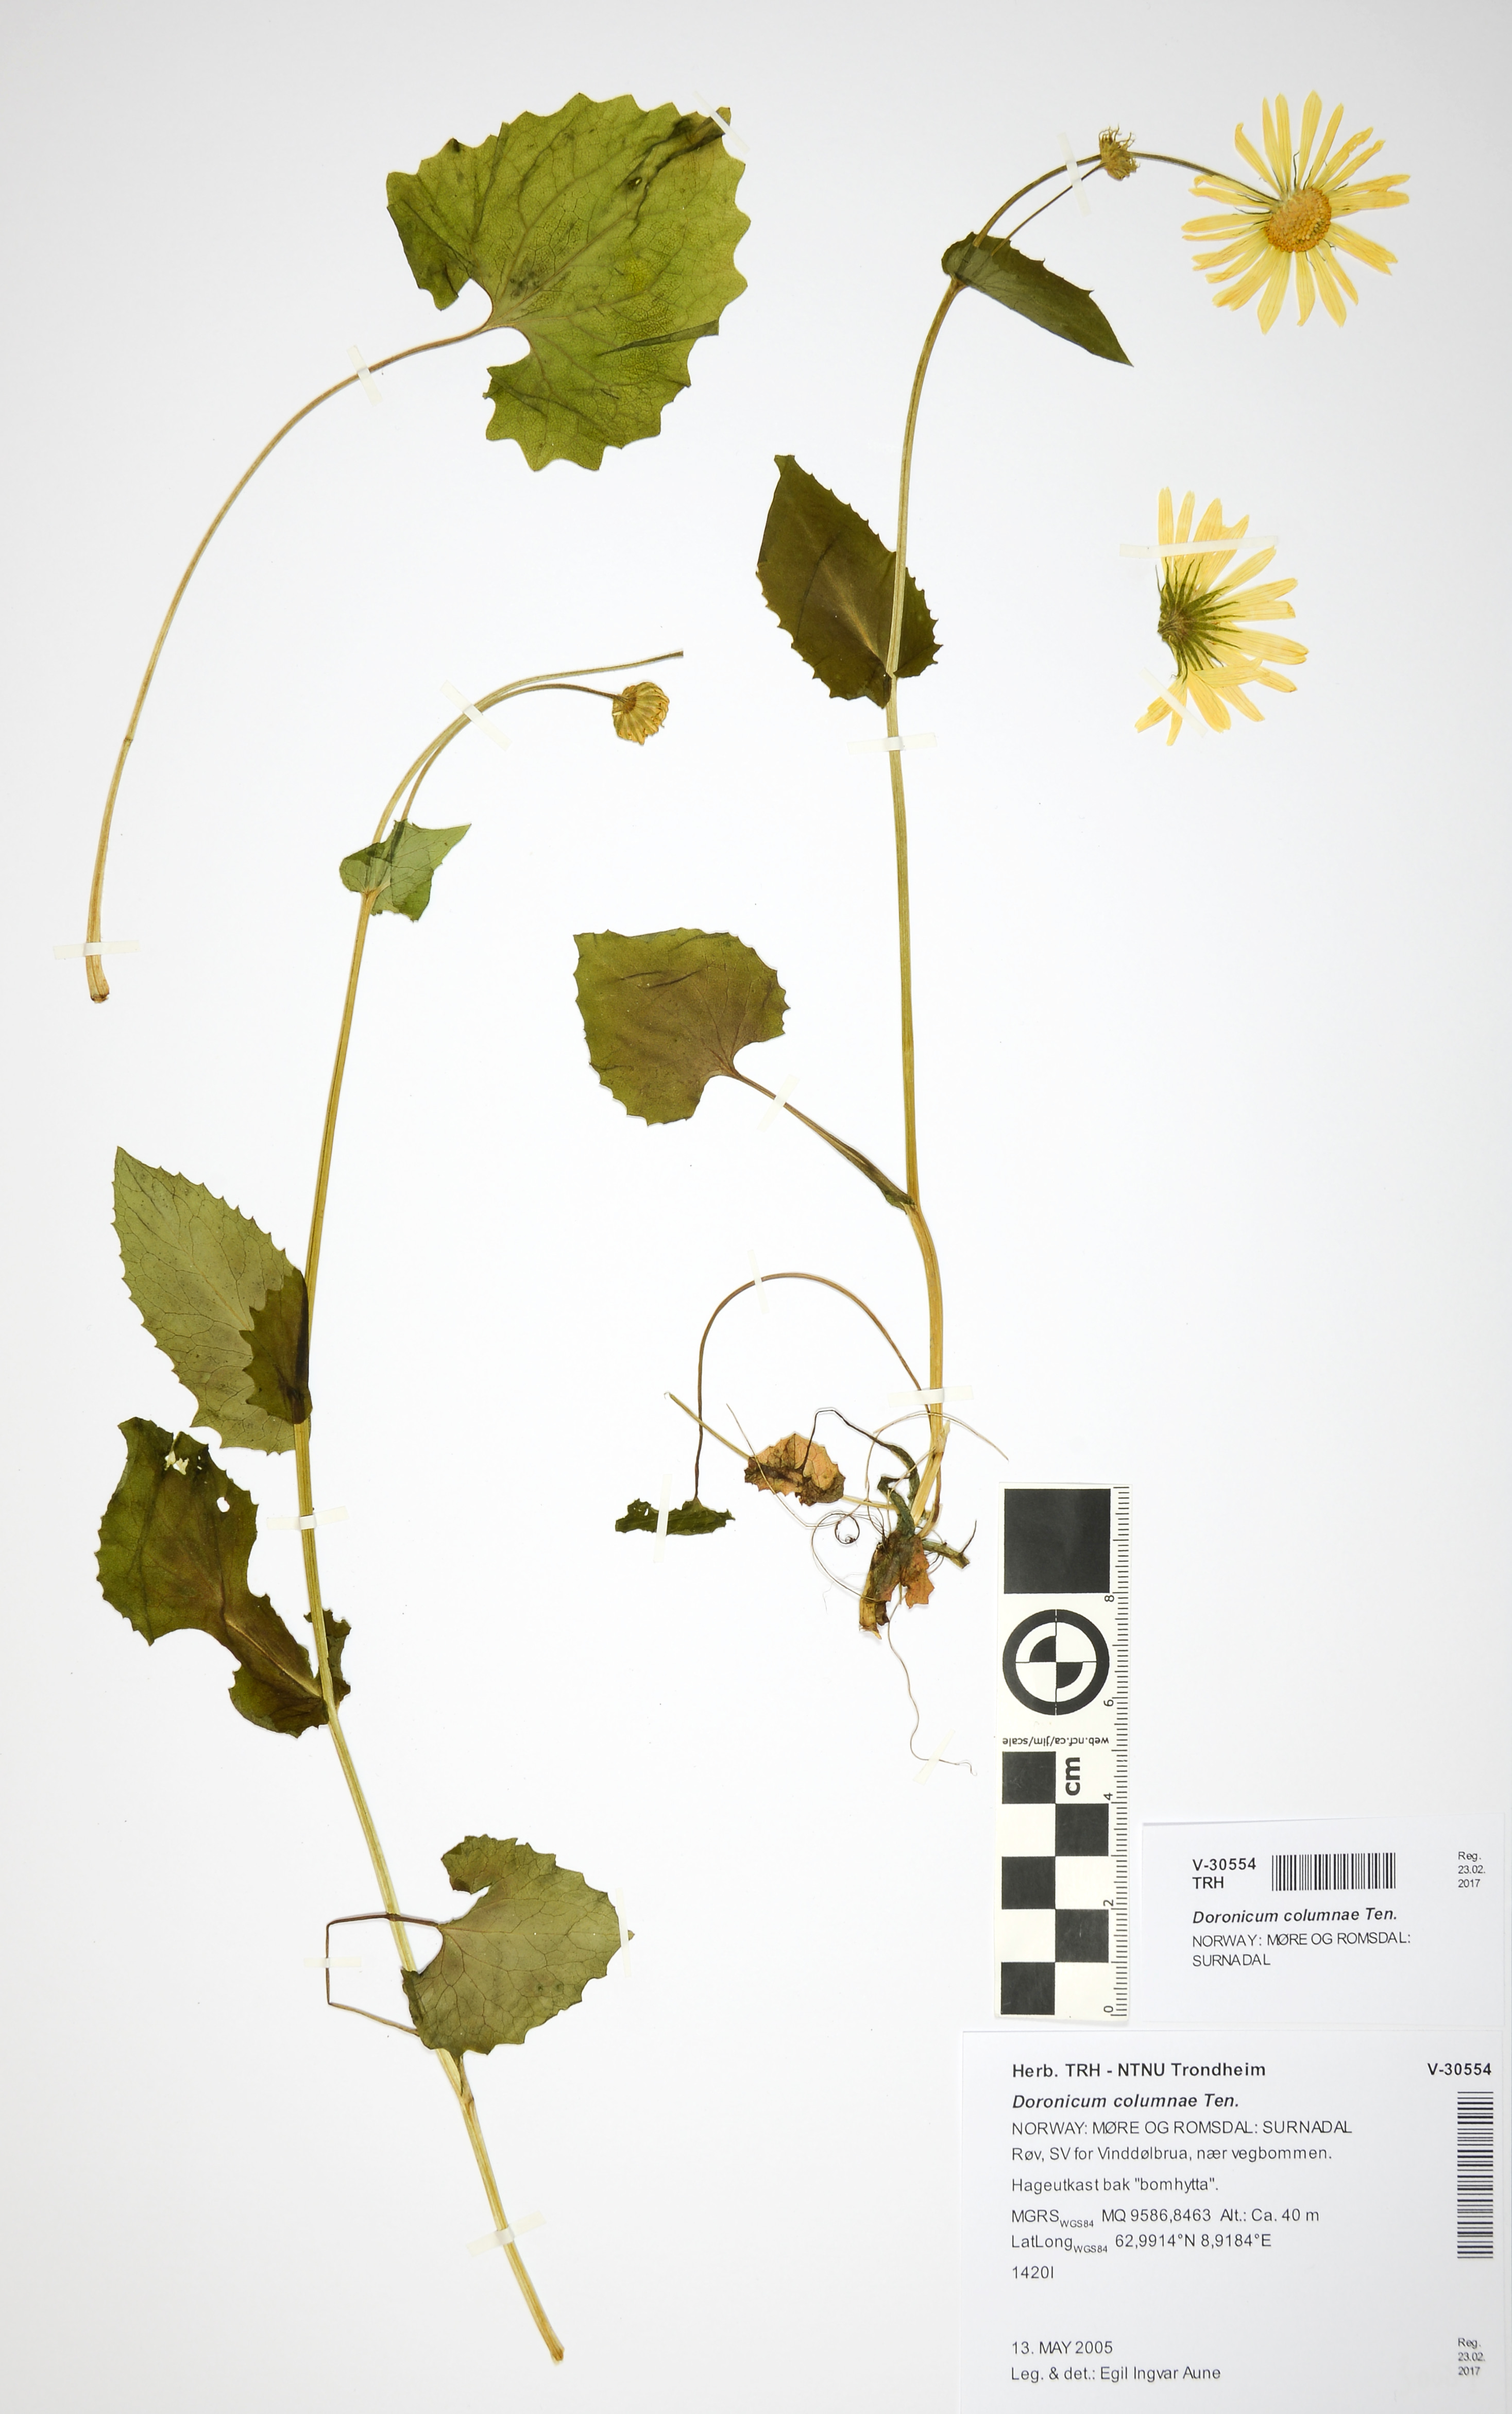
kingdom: Plantae
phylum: Tracheophyta
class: Magnoliopsida
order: Asterales
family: Asteraceae
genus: Doronicum
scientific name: Doronicum columnae
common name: Eastern leopard's-bane
